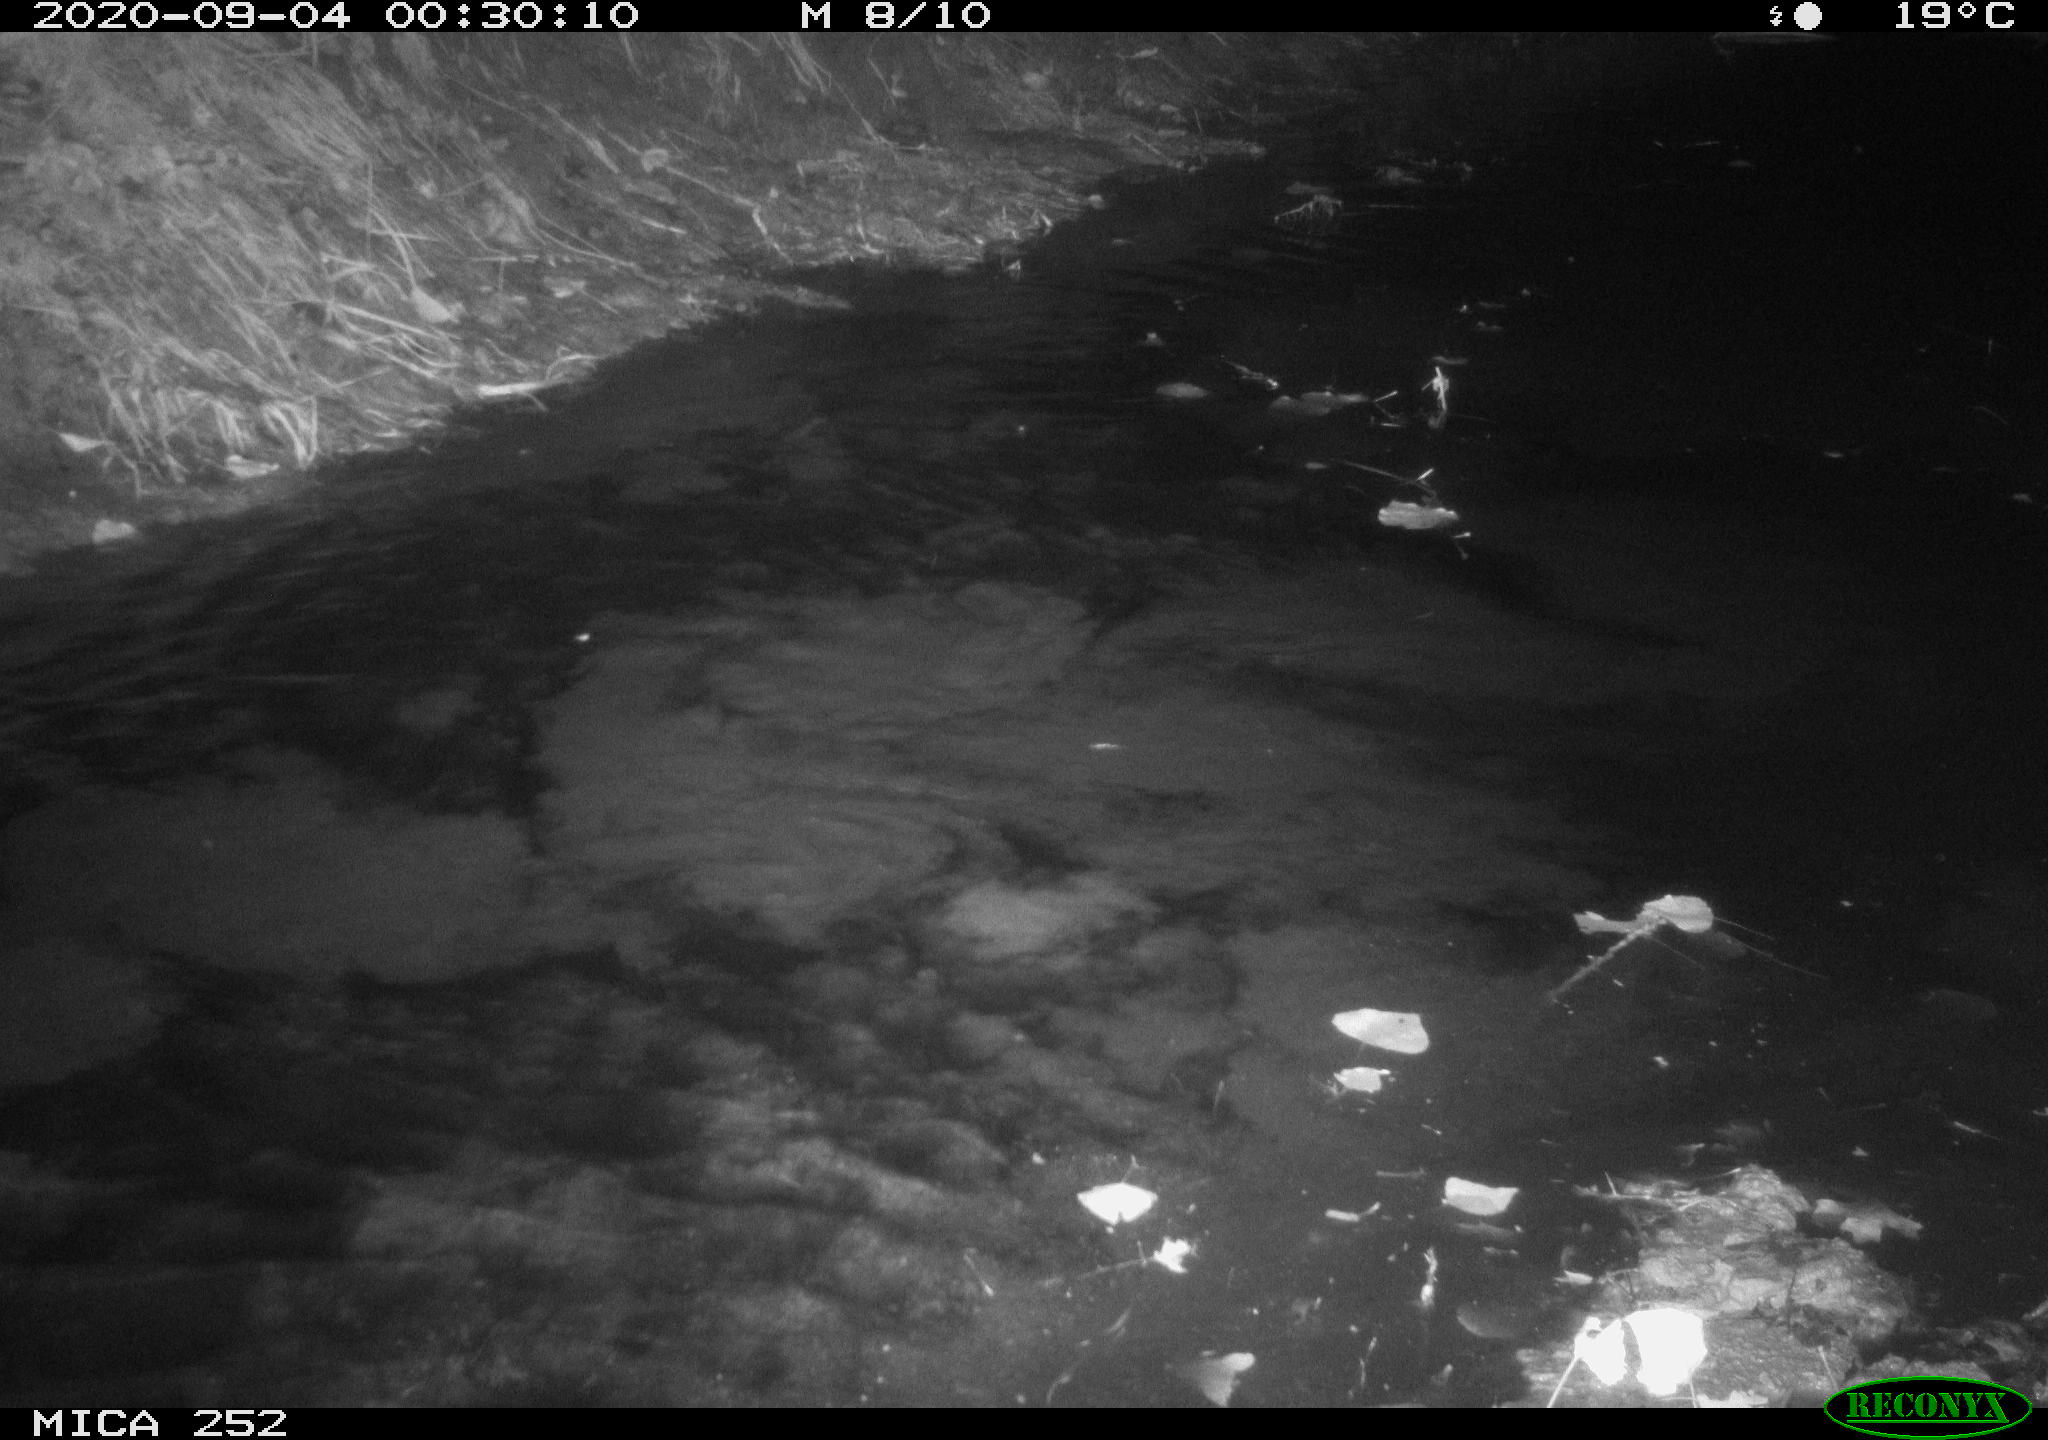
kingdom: Animalia
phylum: Chordata
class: Mammalia
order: Rodentia
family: Castoridae
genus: Castor
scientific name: Castor fiber
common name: Eurasian beaver
